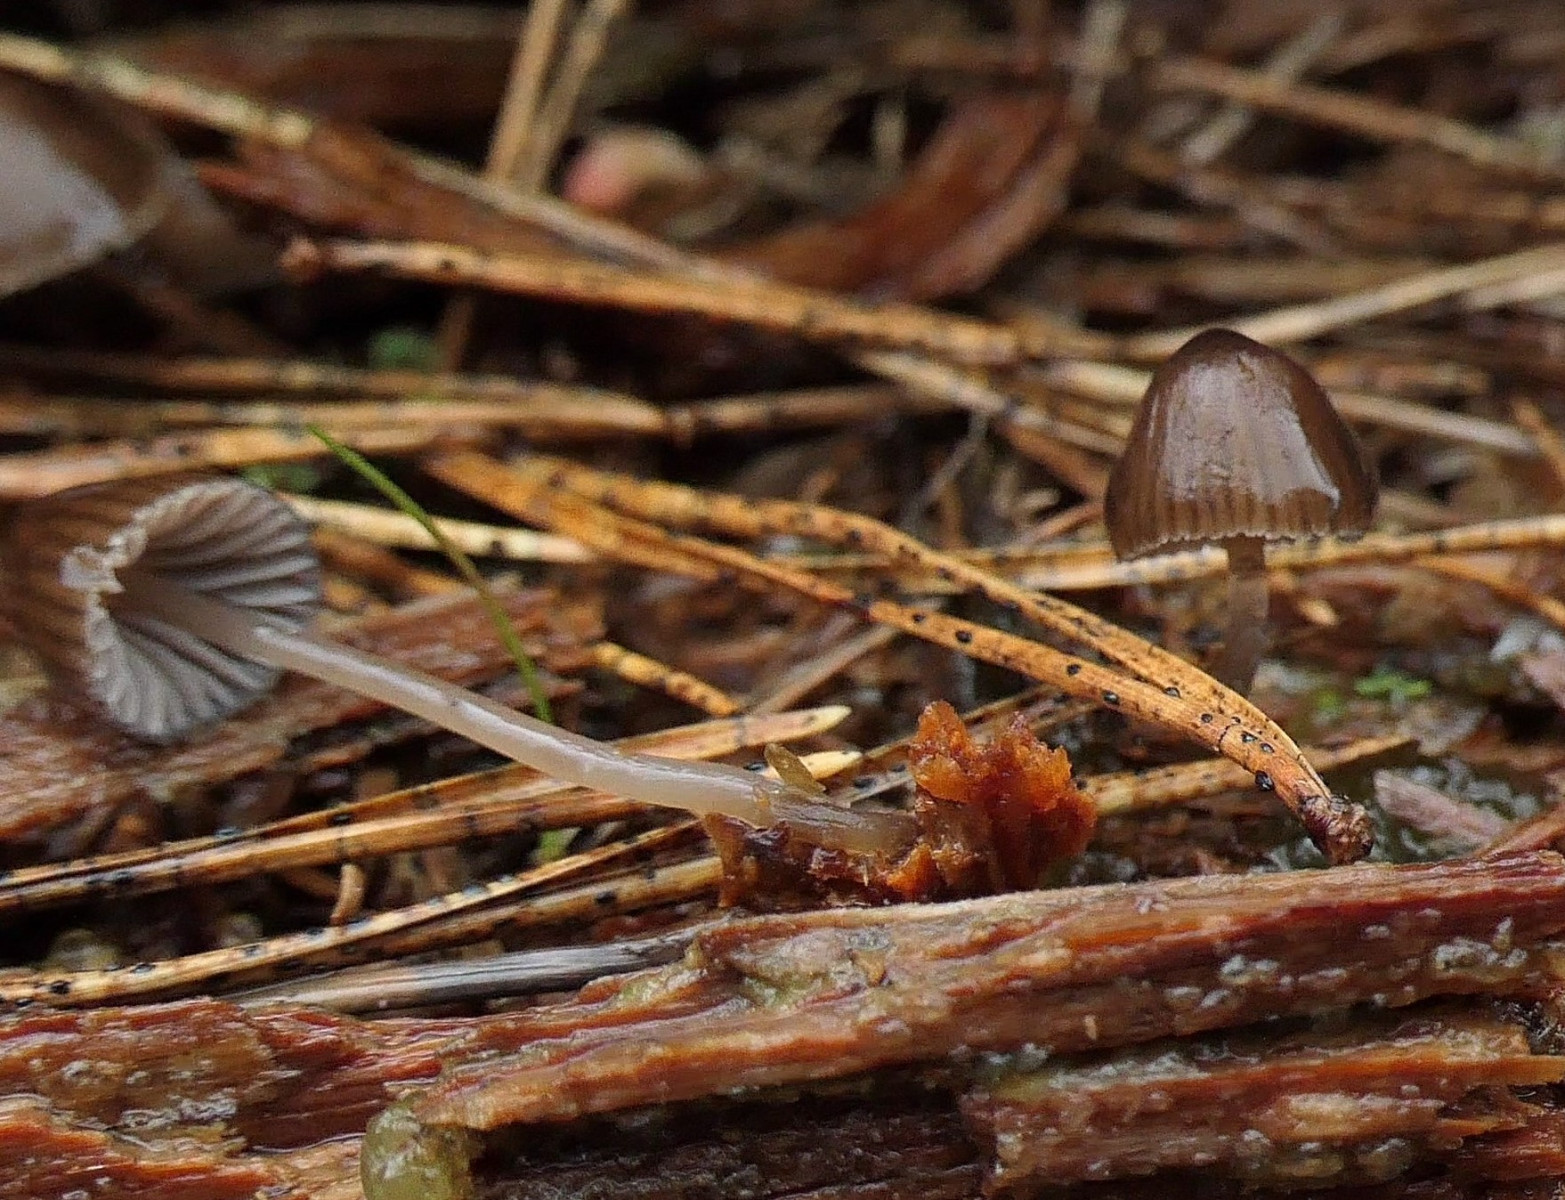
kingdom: Fungi
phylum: Basidiomycota
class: Agaricomycetes
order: Agaricales
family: Mycenaceae
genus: Mycena
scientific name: Mycena stipata
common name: stinkende huesvamp
